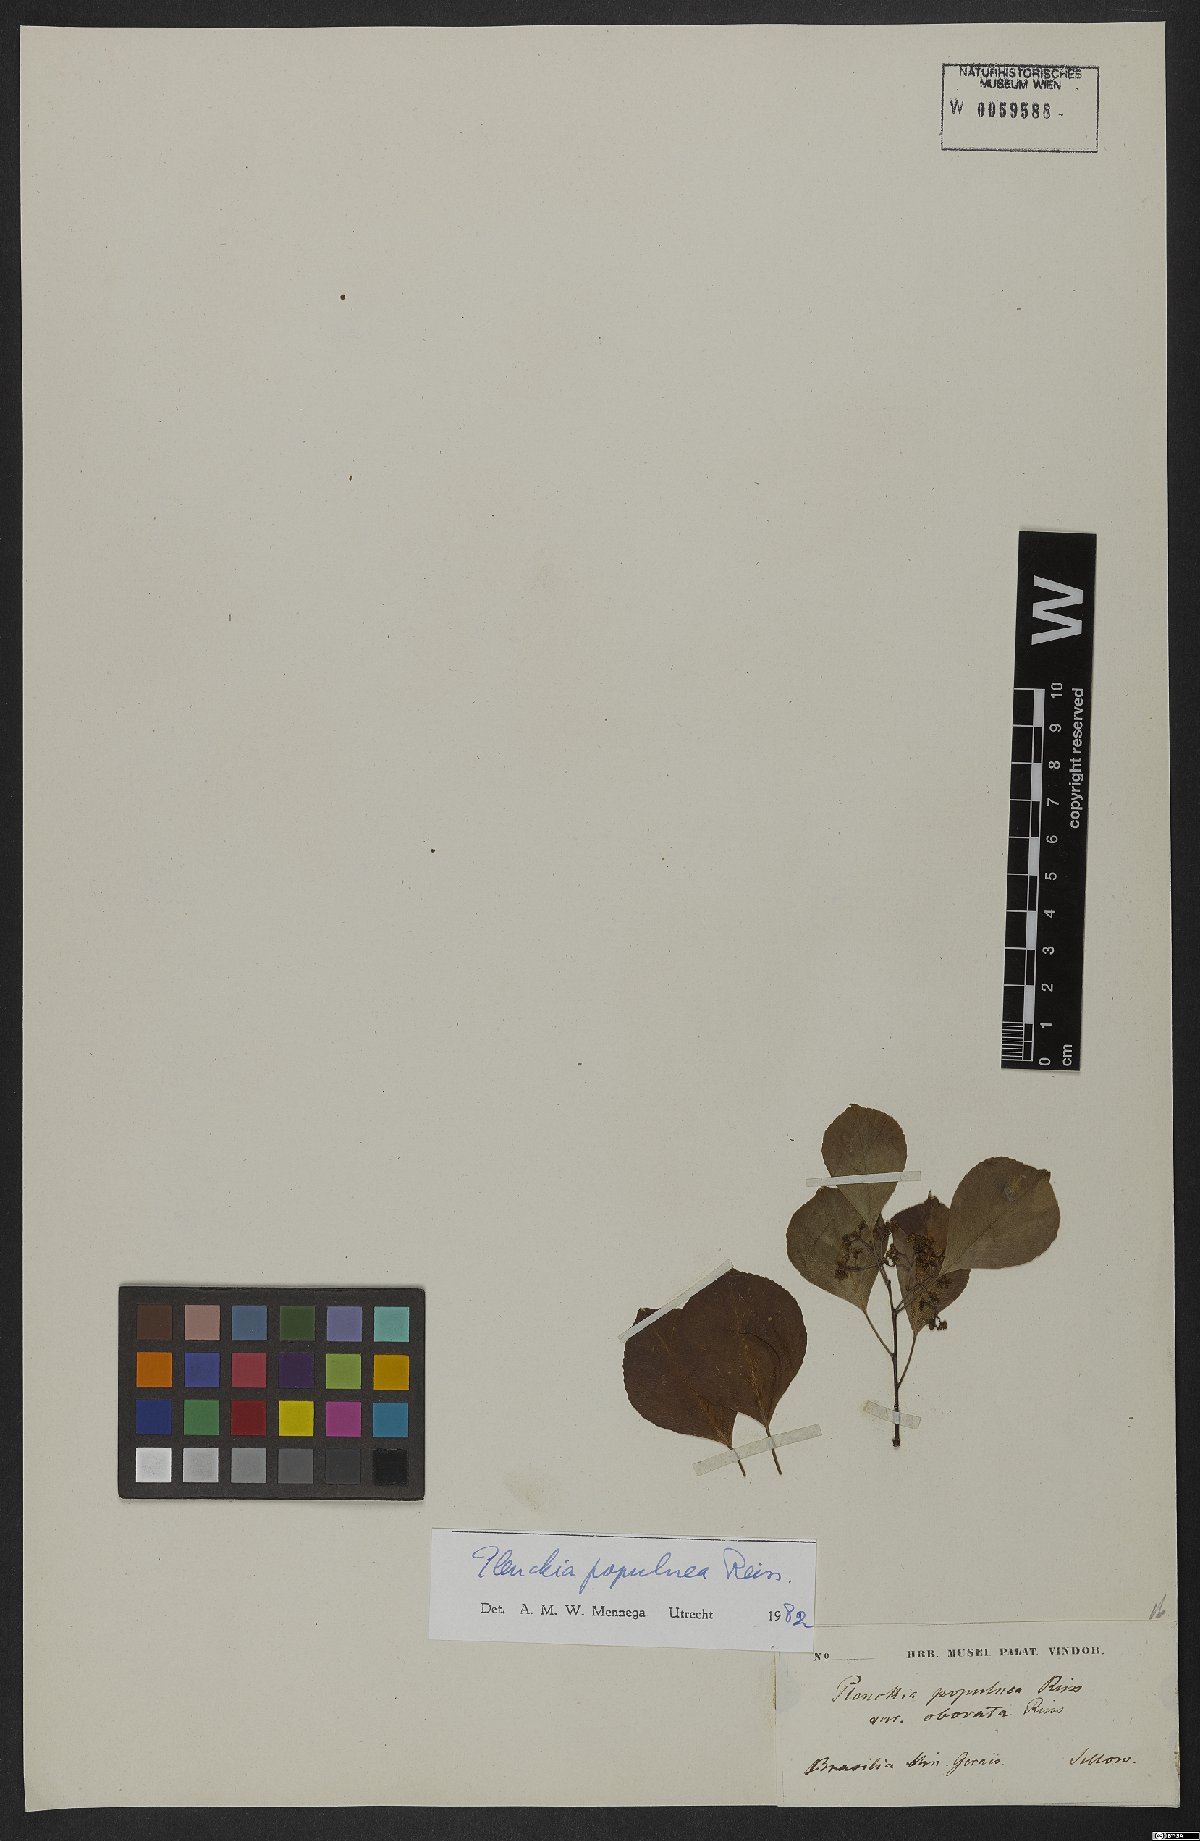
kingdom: Plantae
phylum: Tracheophyta
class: Magnoliopsida
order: Celastrales
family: Celastraceae
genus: Plenckia
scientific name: Plenckia populnea
